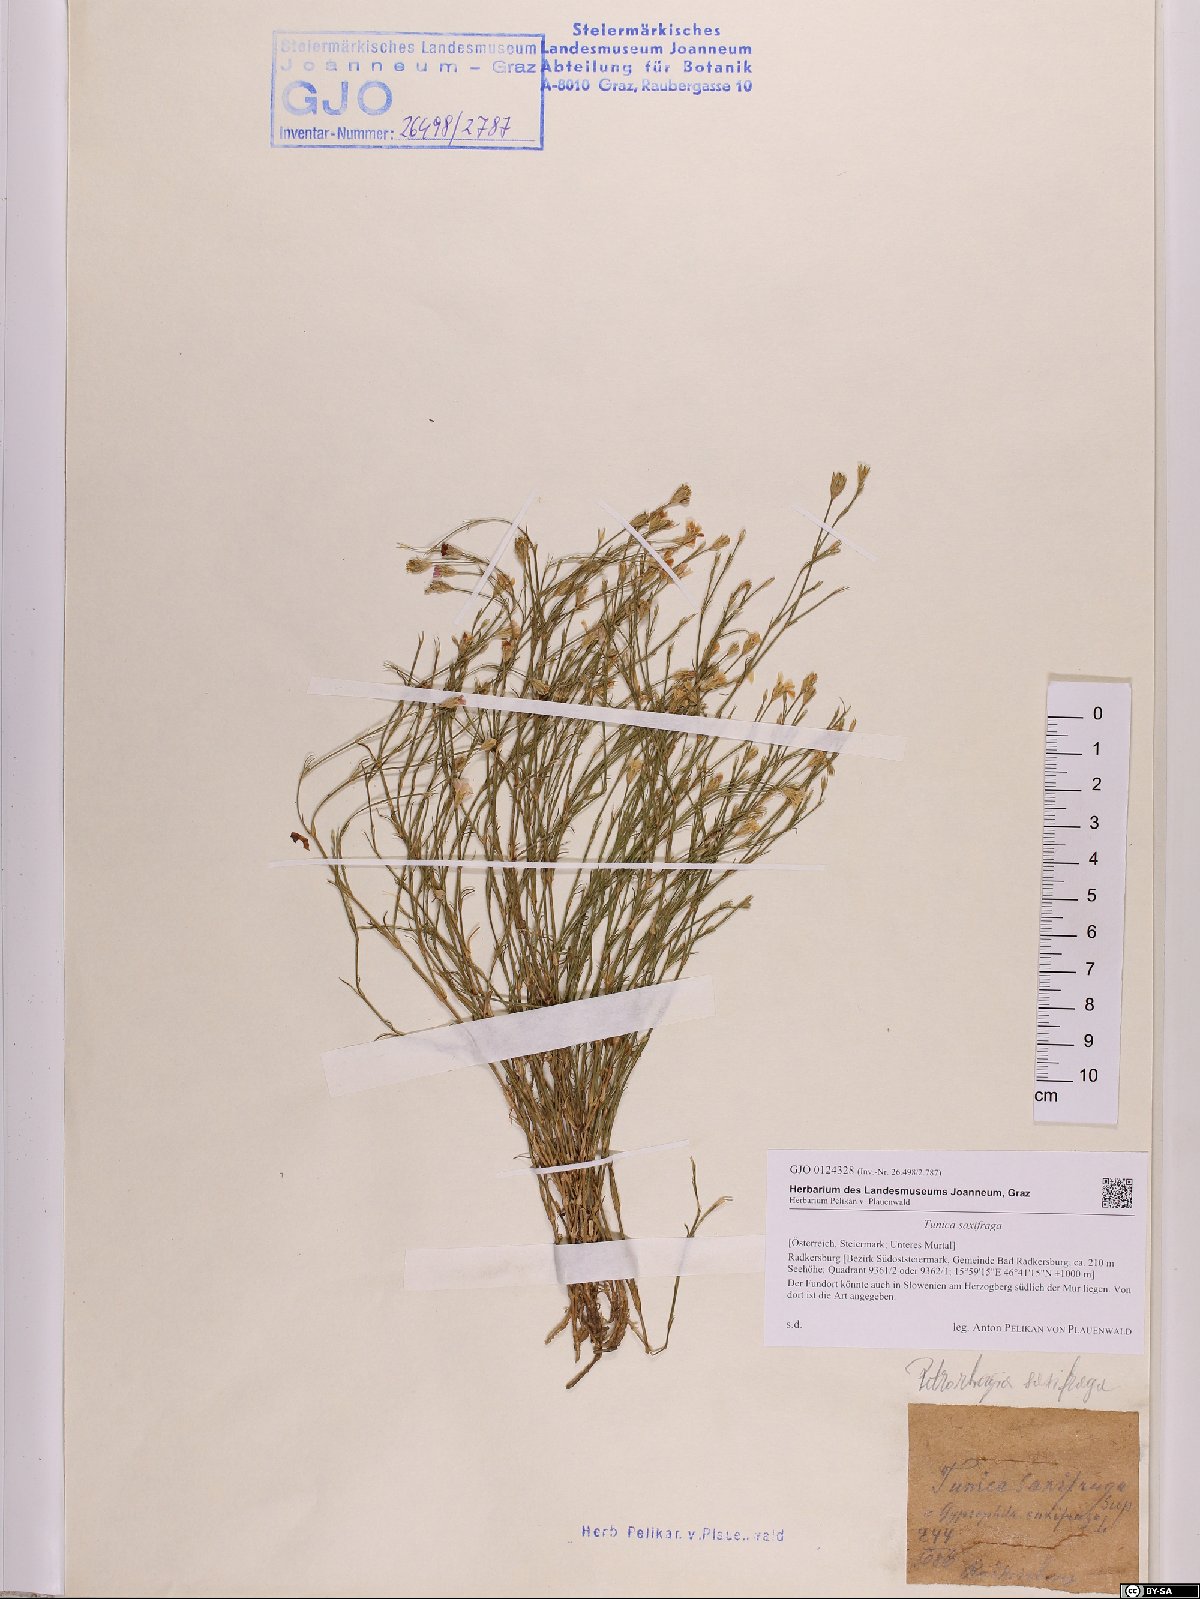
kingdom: Plantae
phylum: Tracheophyta
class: Magnoliopsida
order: Caryophyllales
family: Caryophyllaceae
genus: Petrorhagia
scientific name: Petrorhagia saxifraga
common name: Tunicflower
